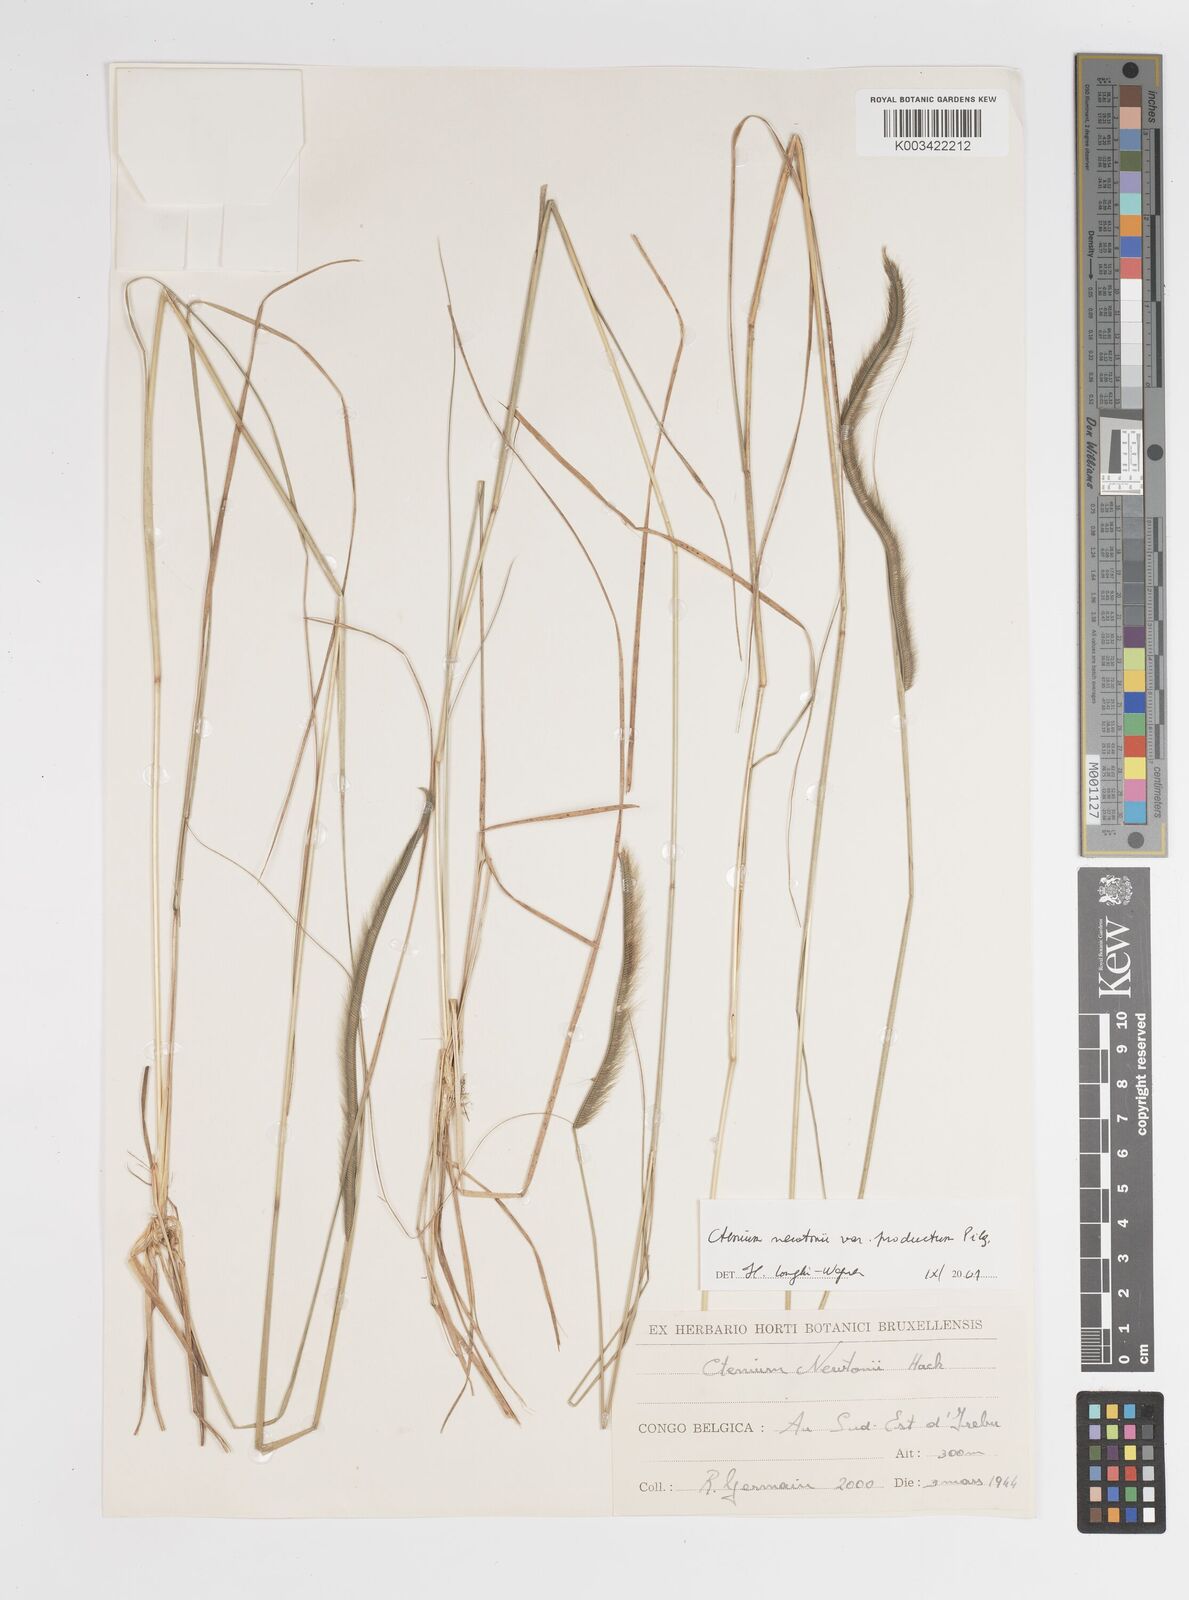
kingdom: Plantae
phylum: Tracheophyta
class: Liliopsida
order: Poales
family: Poaceae
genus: Ctenium
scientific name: Ctenium newtonii
